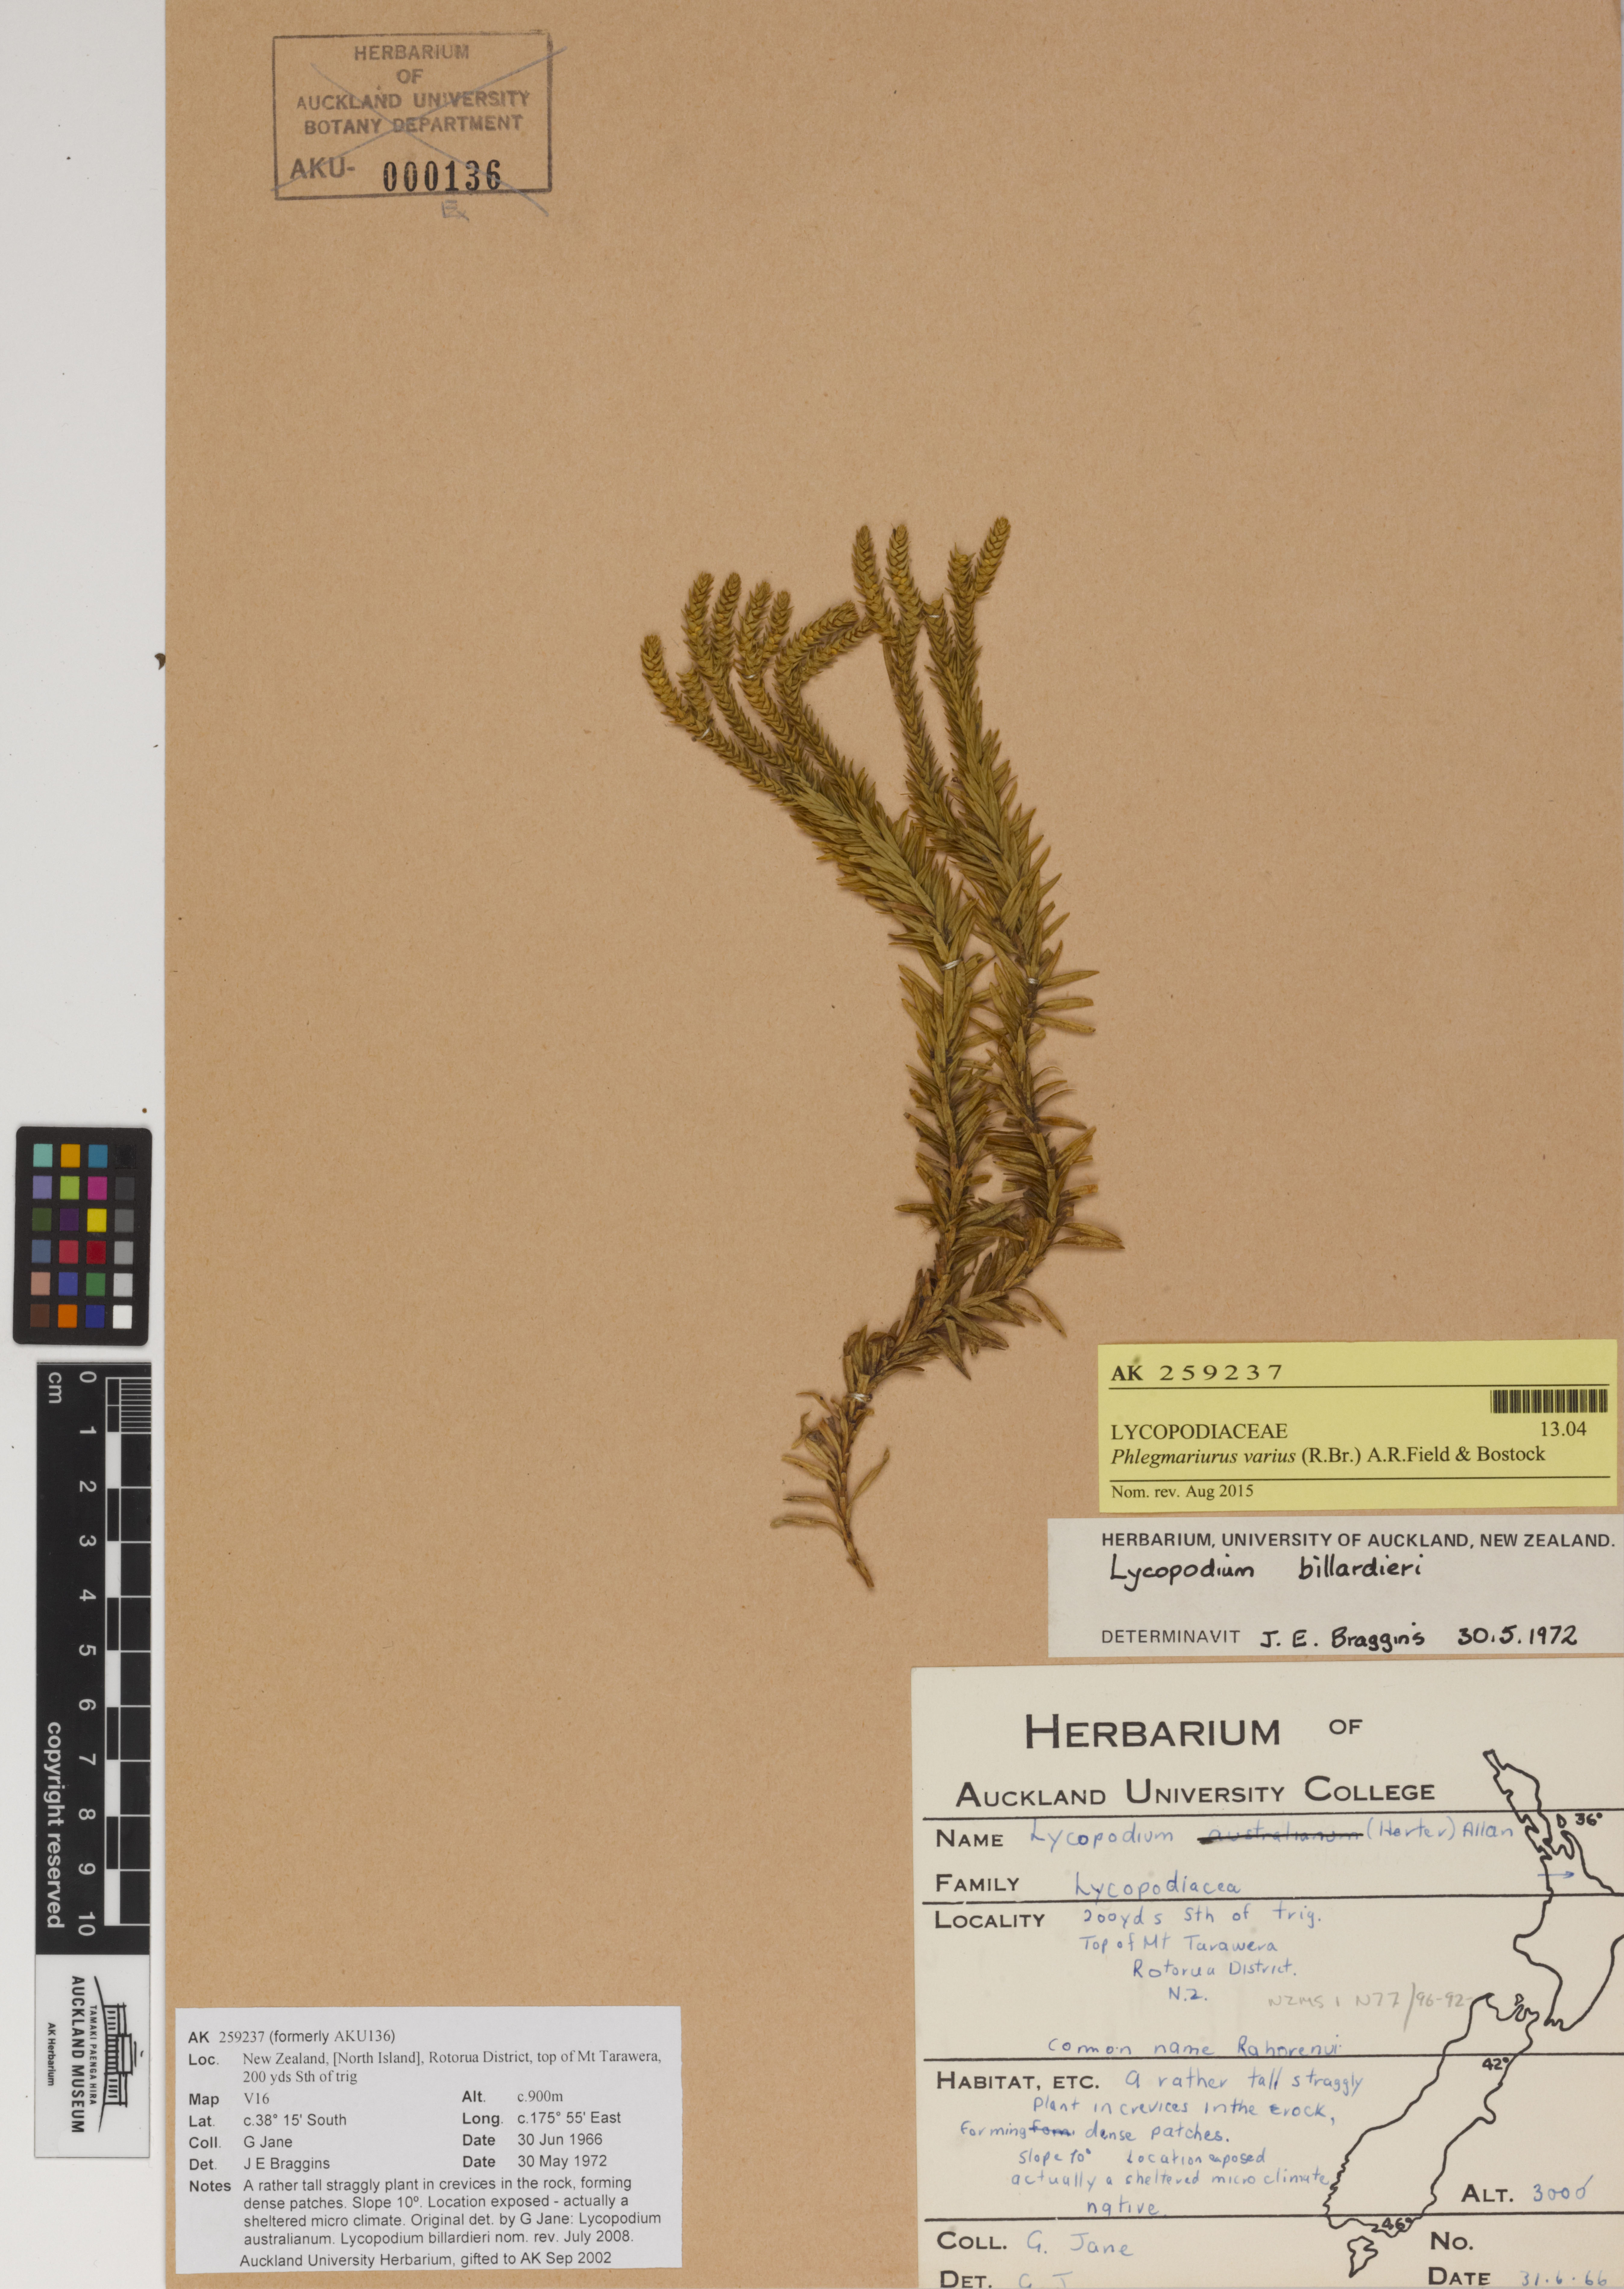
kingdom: Plantae
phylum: Tracheophyta
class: Lycopodiopsida
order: Lycopodiales
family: Lycopodiaceae
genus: Phlegmariurus
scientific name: Phlegmariurus varius
